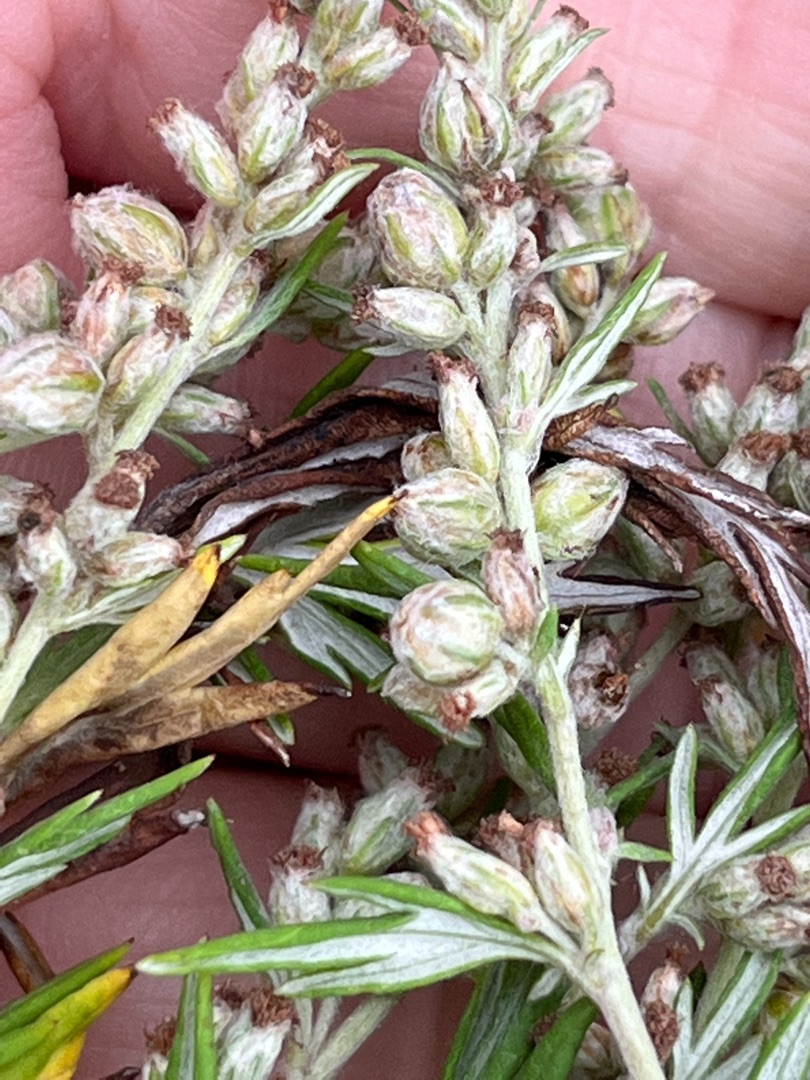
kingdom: Animalia
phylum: Arthropoda
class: Insecta
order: Diptera
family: Cecidomyiidae
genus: Ametrodiplosis
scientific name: Ametrodiplosis rudimentalis
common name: Bynkekurvgalmyg
